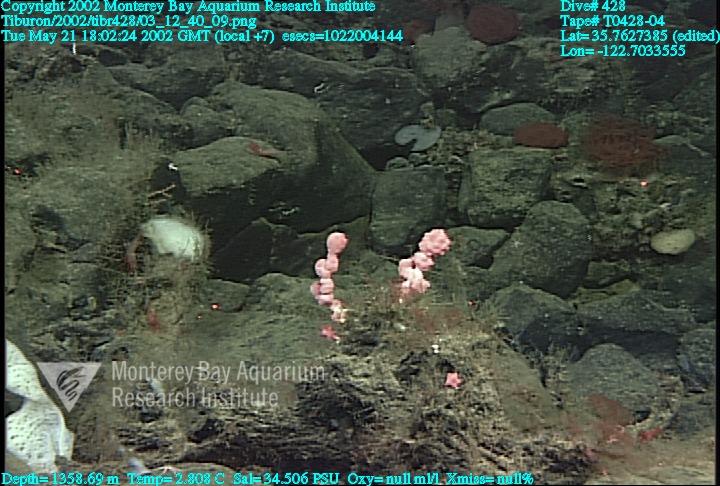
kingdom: Animalia
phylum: Porifera
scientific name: Porifera
